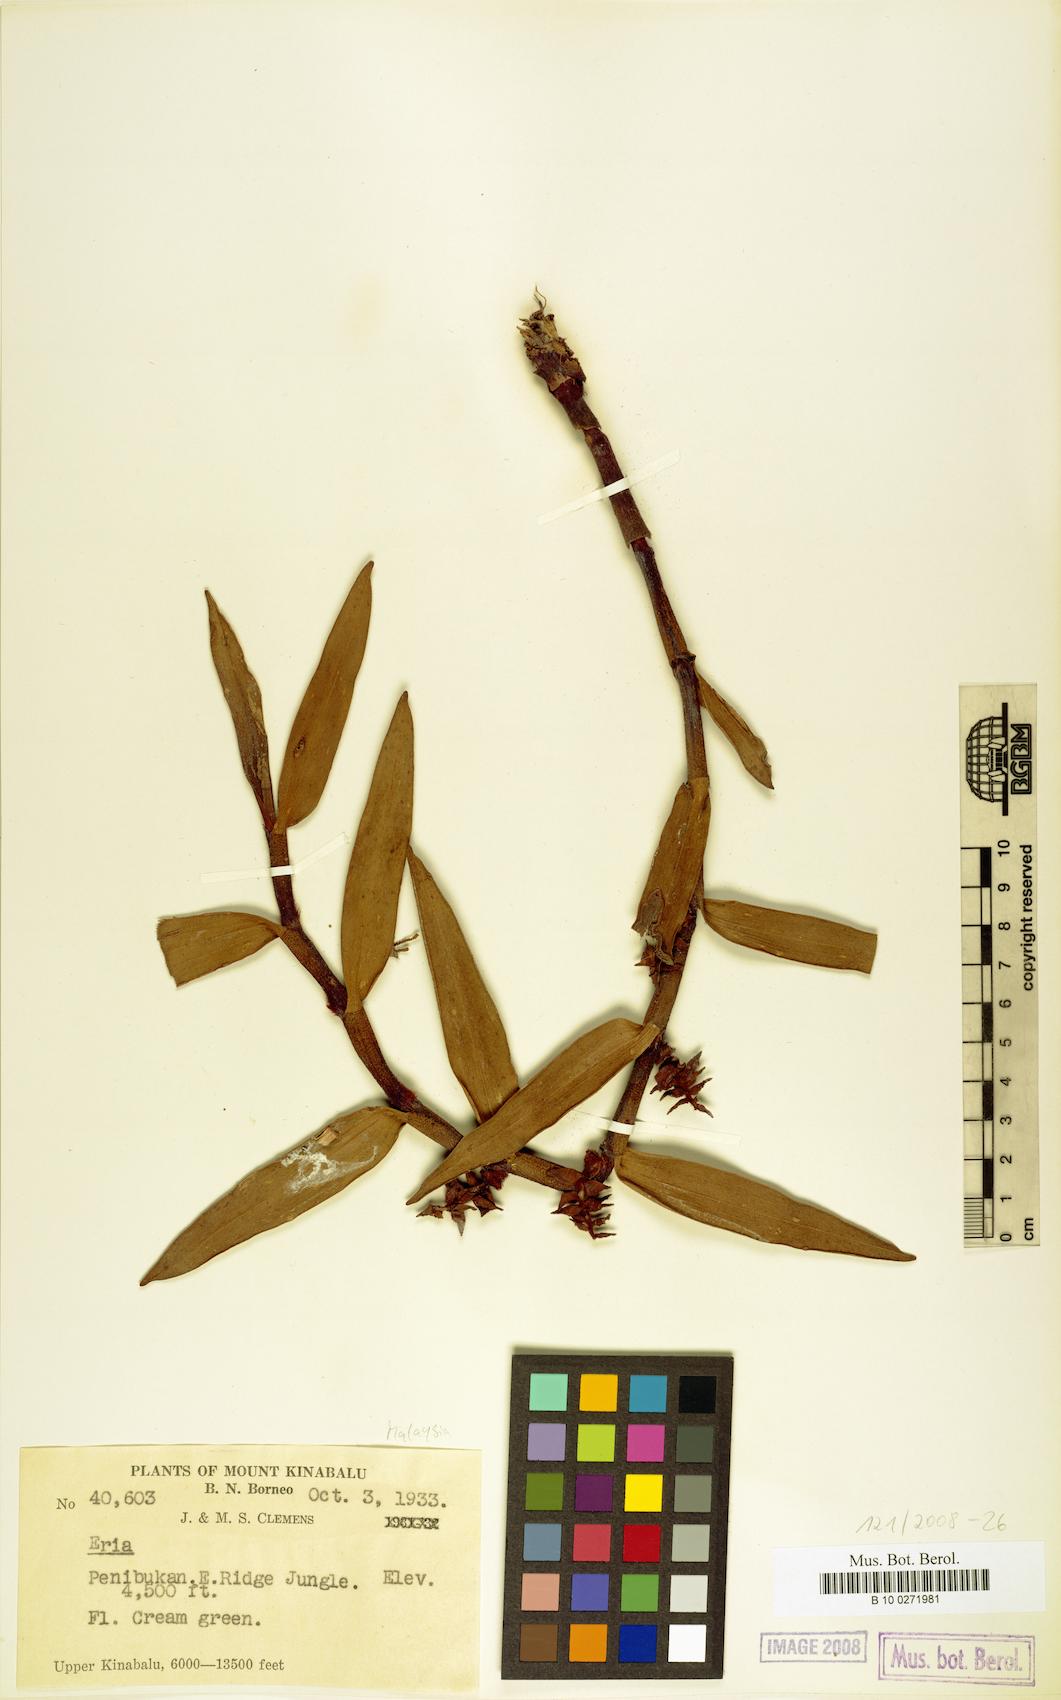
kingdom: Plantae
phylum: Tracheophyta
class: Liliopsida
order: Asparagales
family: Orchidaceae
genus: Eria
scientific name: Eria
